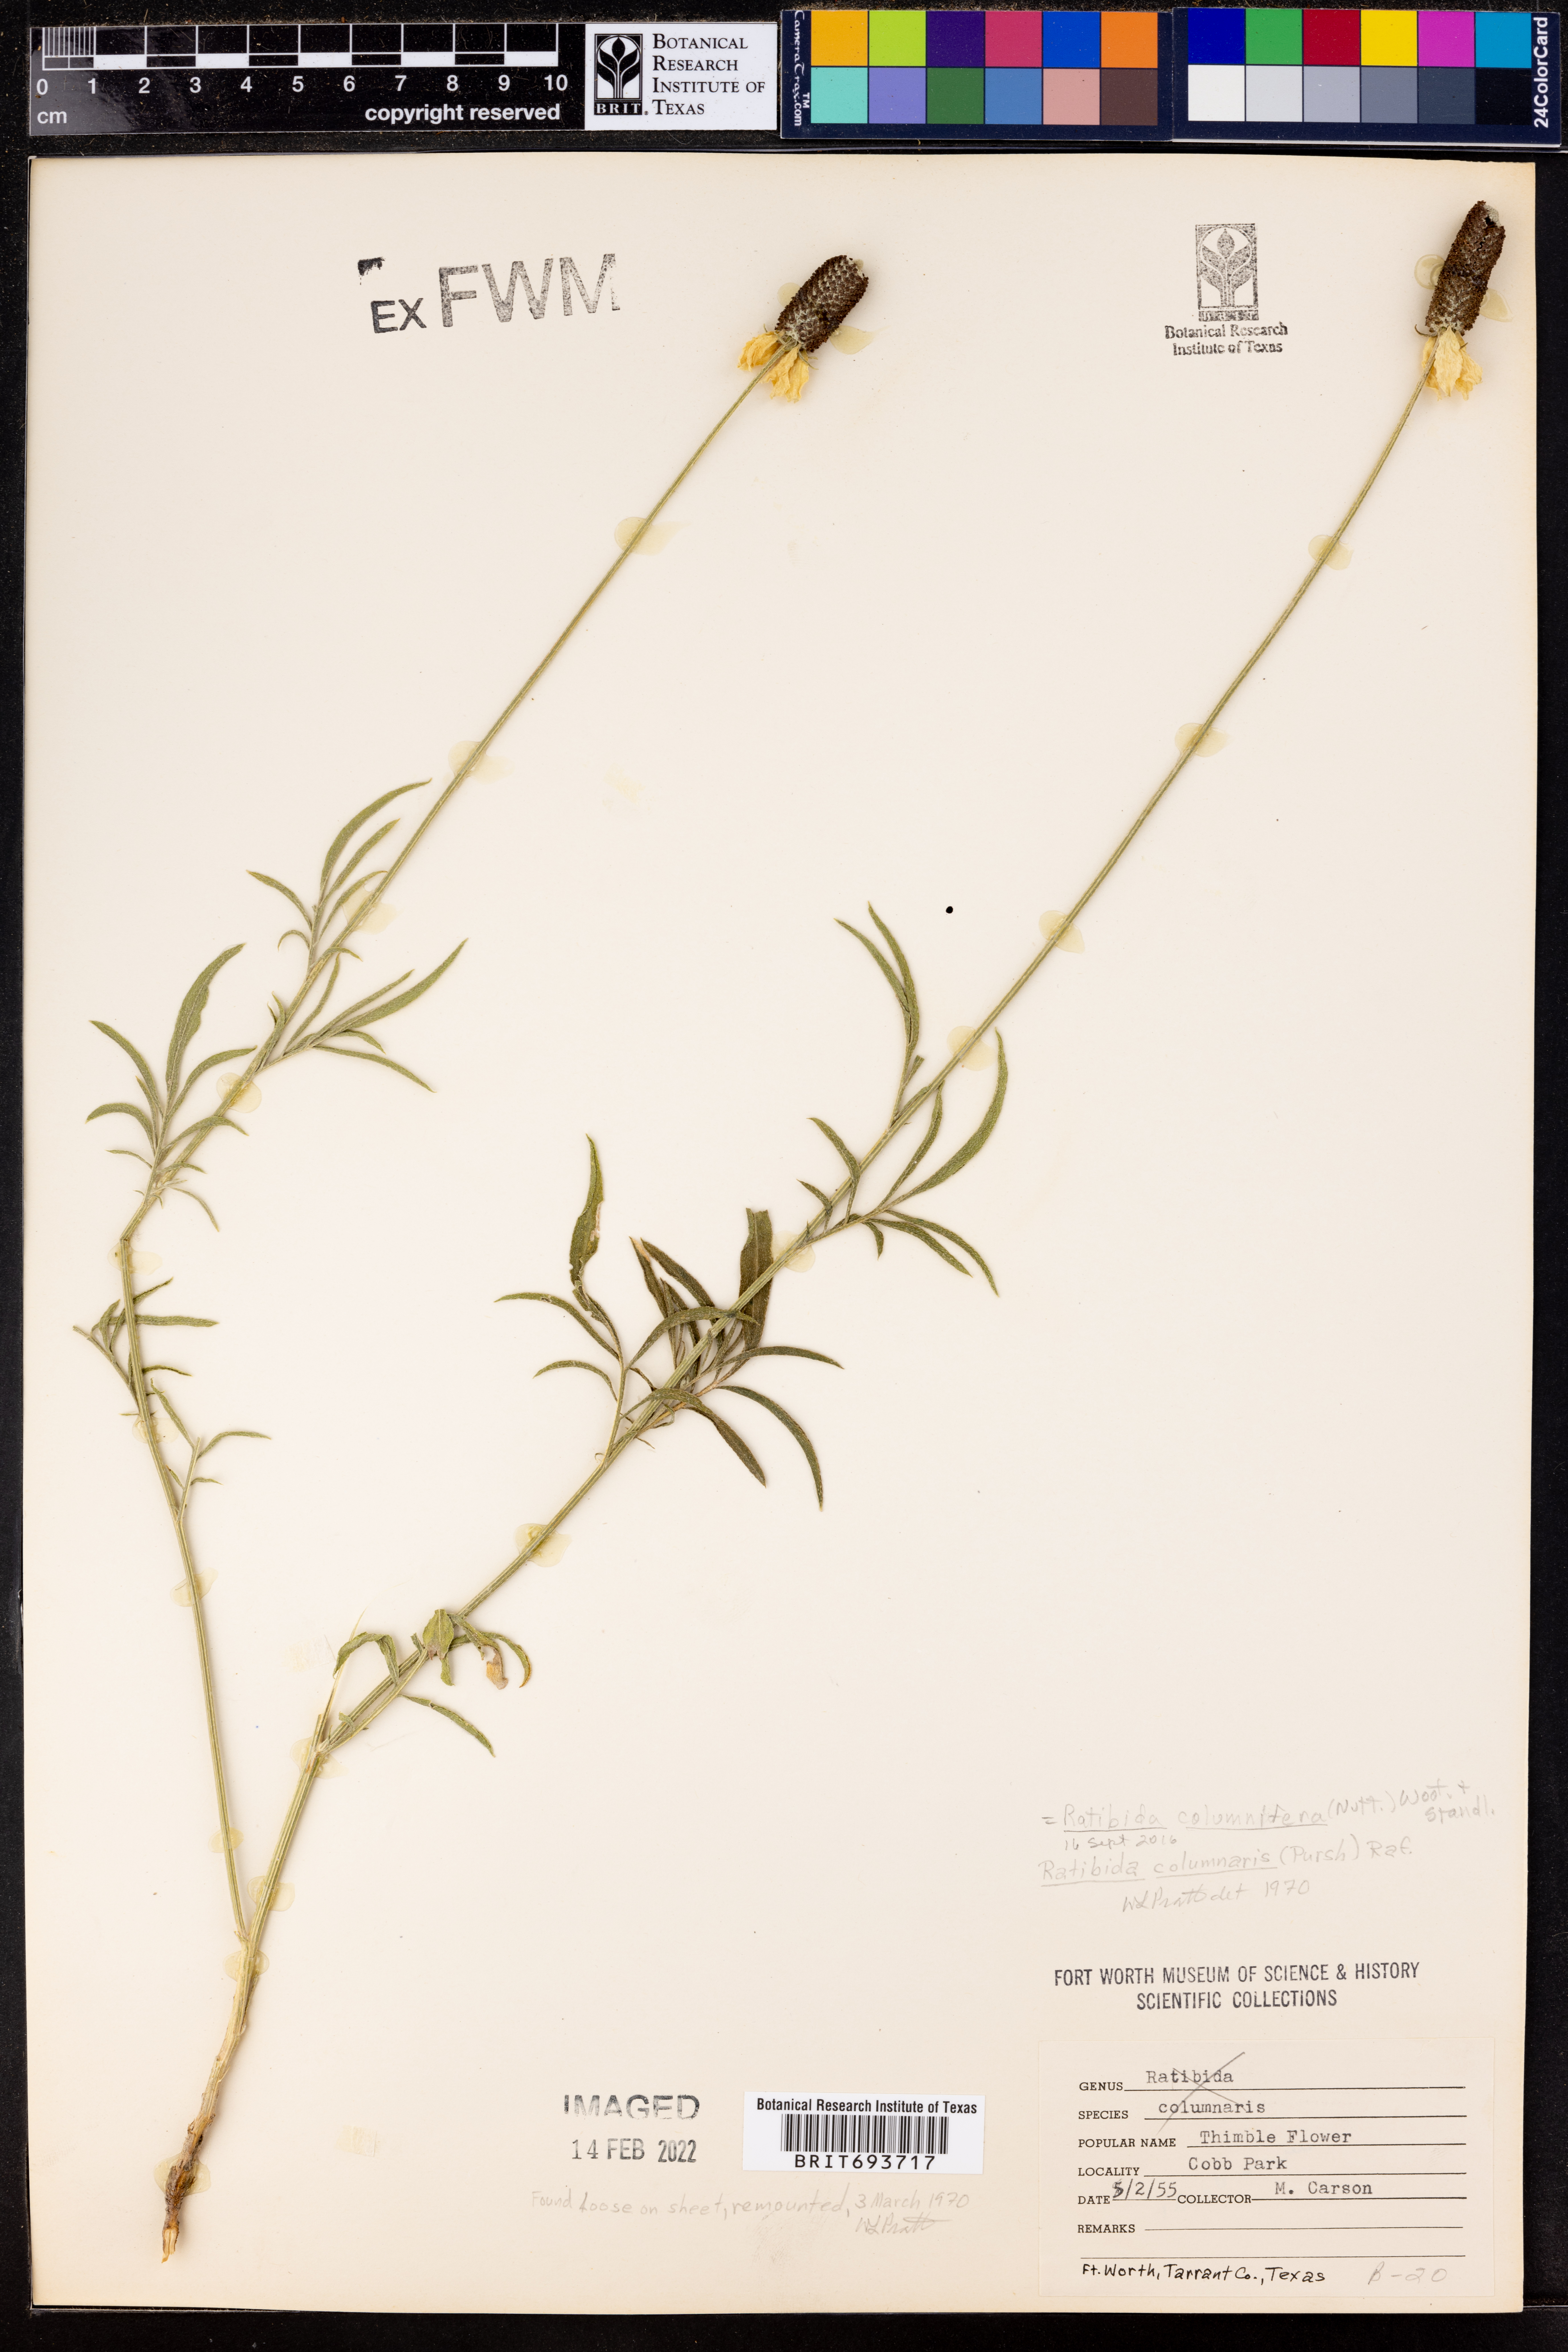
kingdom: Plantae
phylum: Tracheophyta
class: Magnoliopsida
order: Asterales
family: Asteraceae
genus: Ratibida
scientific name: Ratibida columnifera
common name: Prairie coneflower
